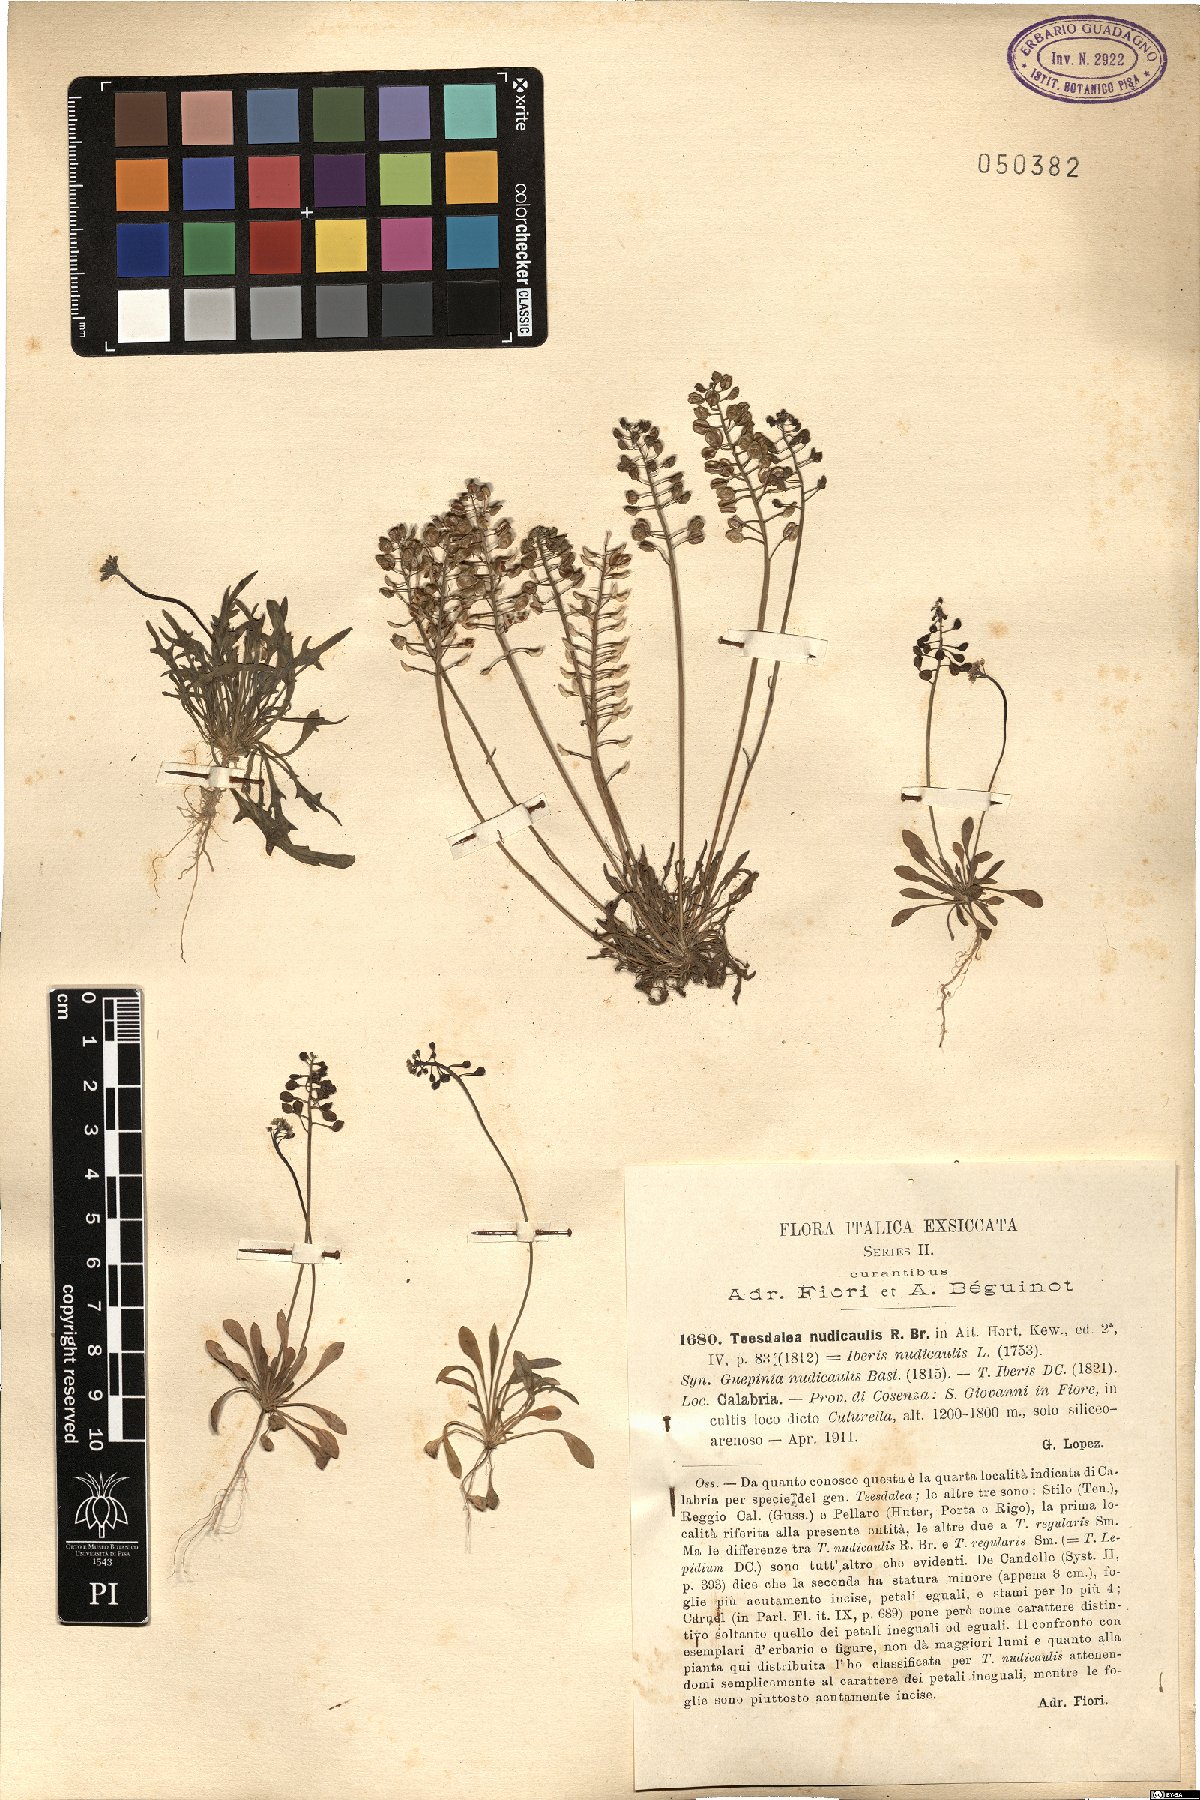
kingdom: Plantae
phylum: Tracheophyta
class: Magnoliopsida
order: Brassicales
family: Brassicaceae
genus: Teesdalia
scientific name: Teesdalia nudicaulis
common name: Shepherd's cress
